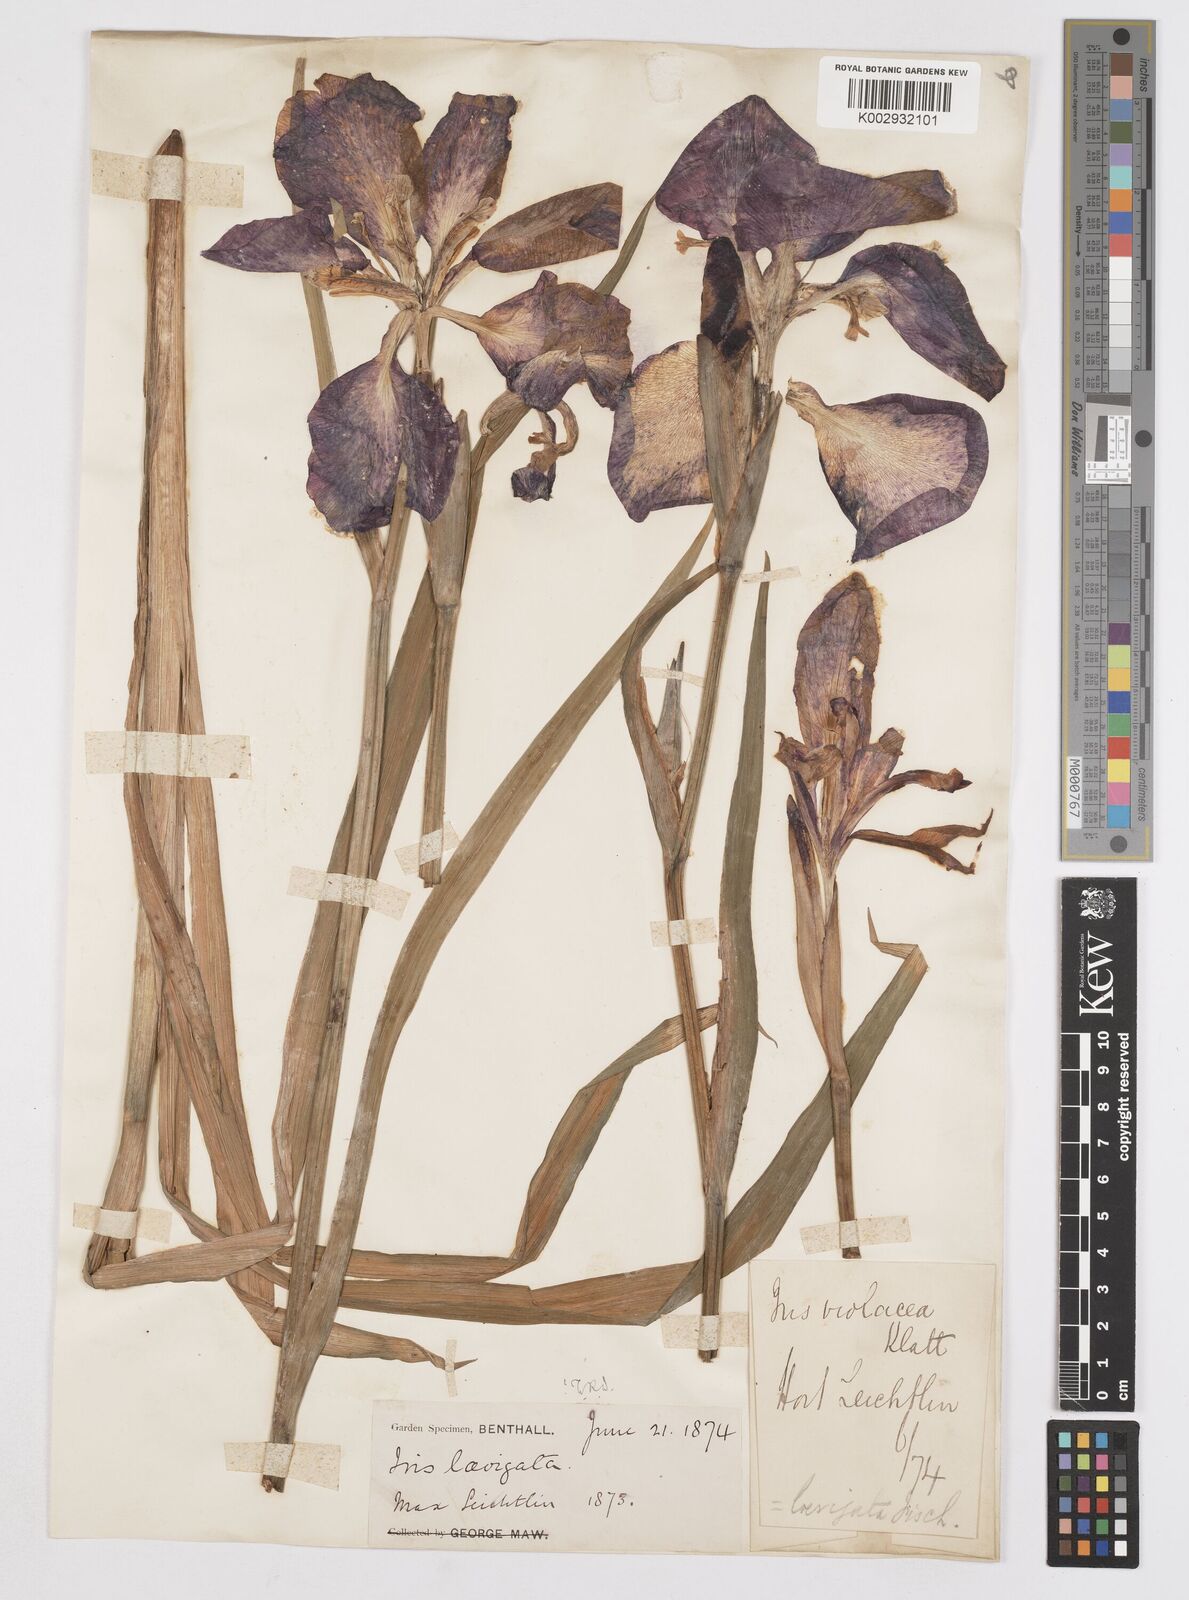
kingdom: Plantae
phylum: Tracheophyta
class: Liliopsida
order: Asparagales
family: Iridaceae
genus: Iris
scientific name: Iris laevigata
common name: Japanese iris
